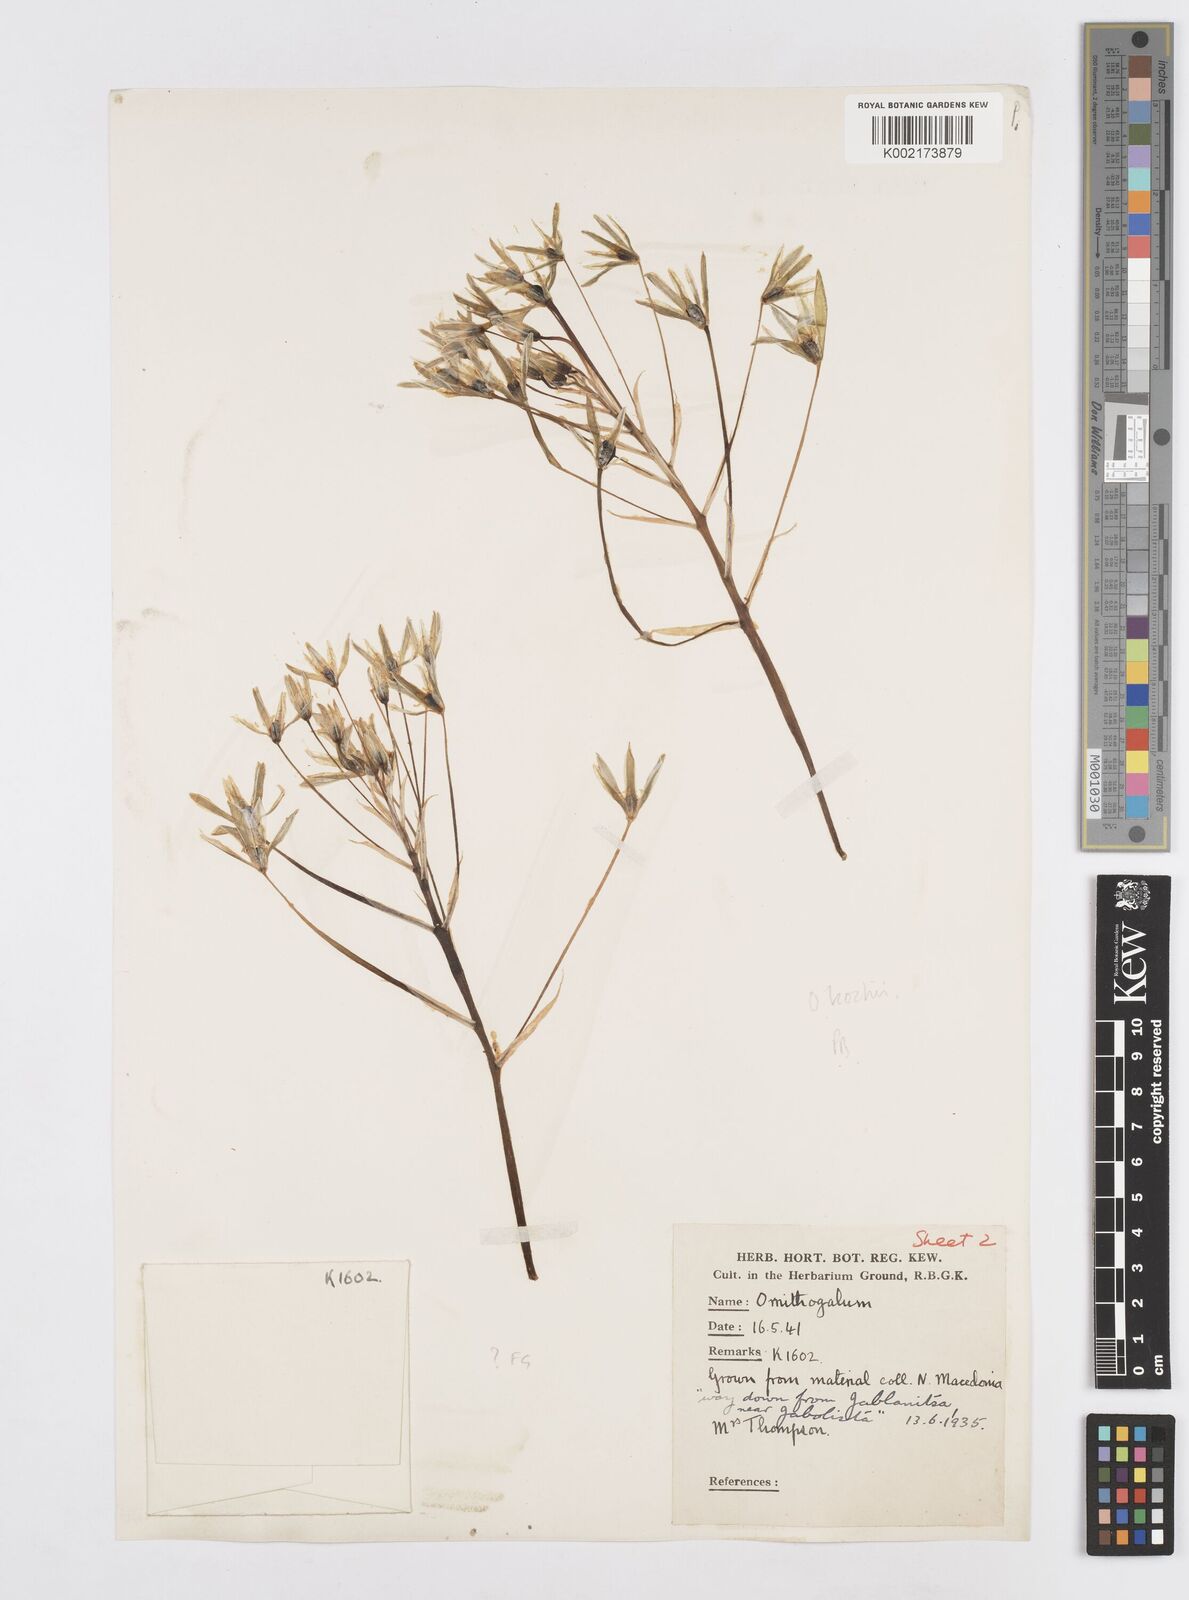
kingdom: Plantae
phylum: Tracheophyta
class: Liliopsida
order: Asparagales
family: Asparagaceae
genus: Ornithogalum
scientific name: Ornithogalum orthophyllum
